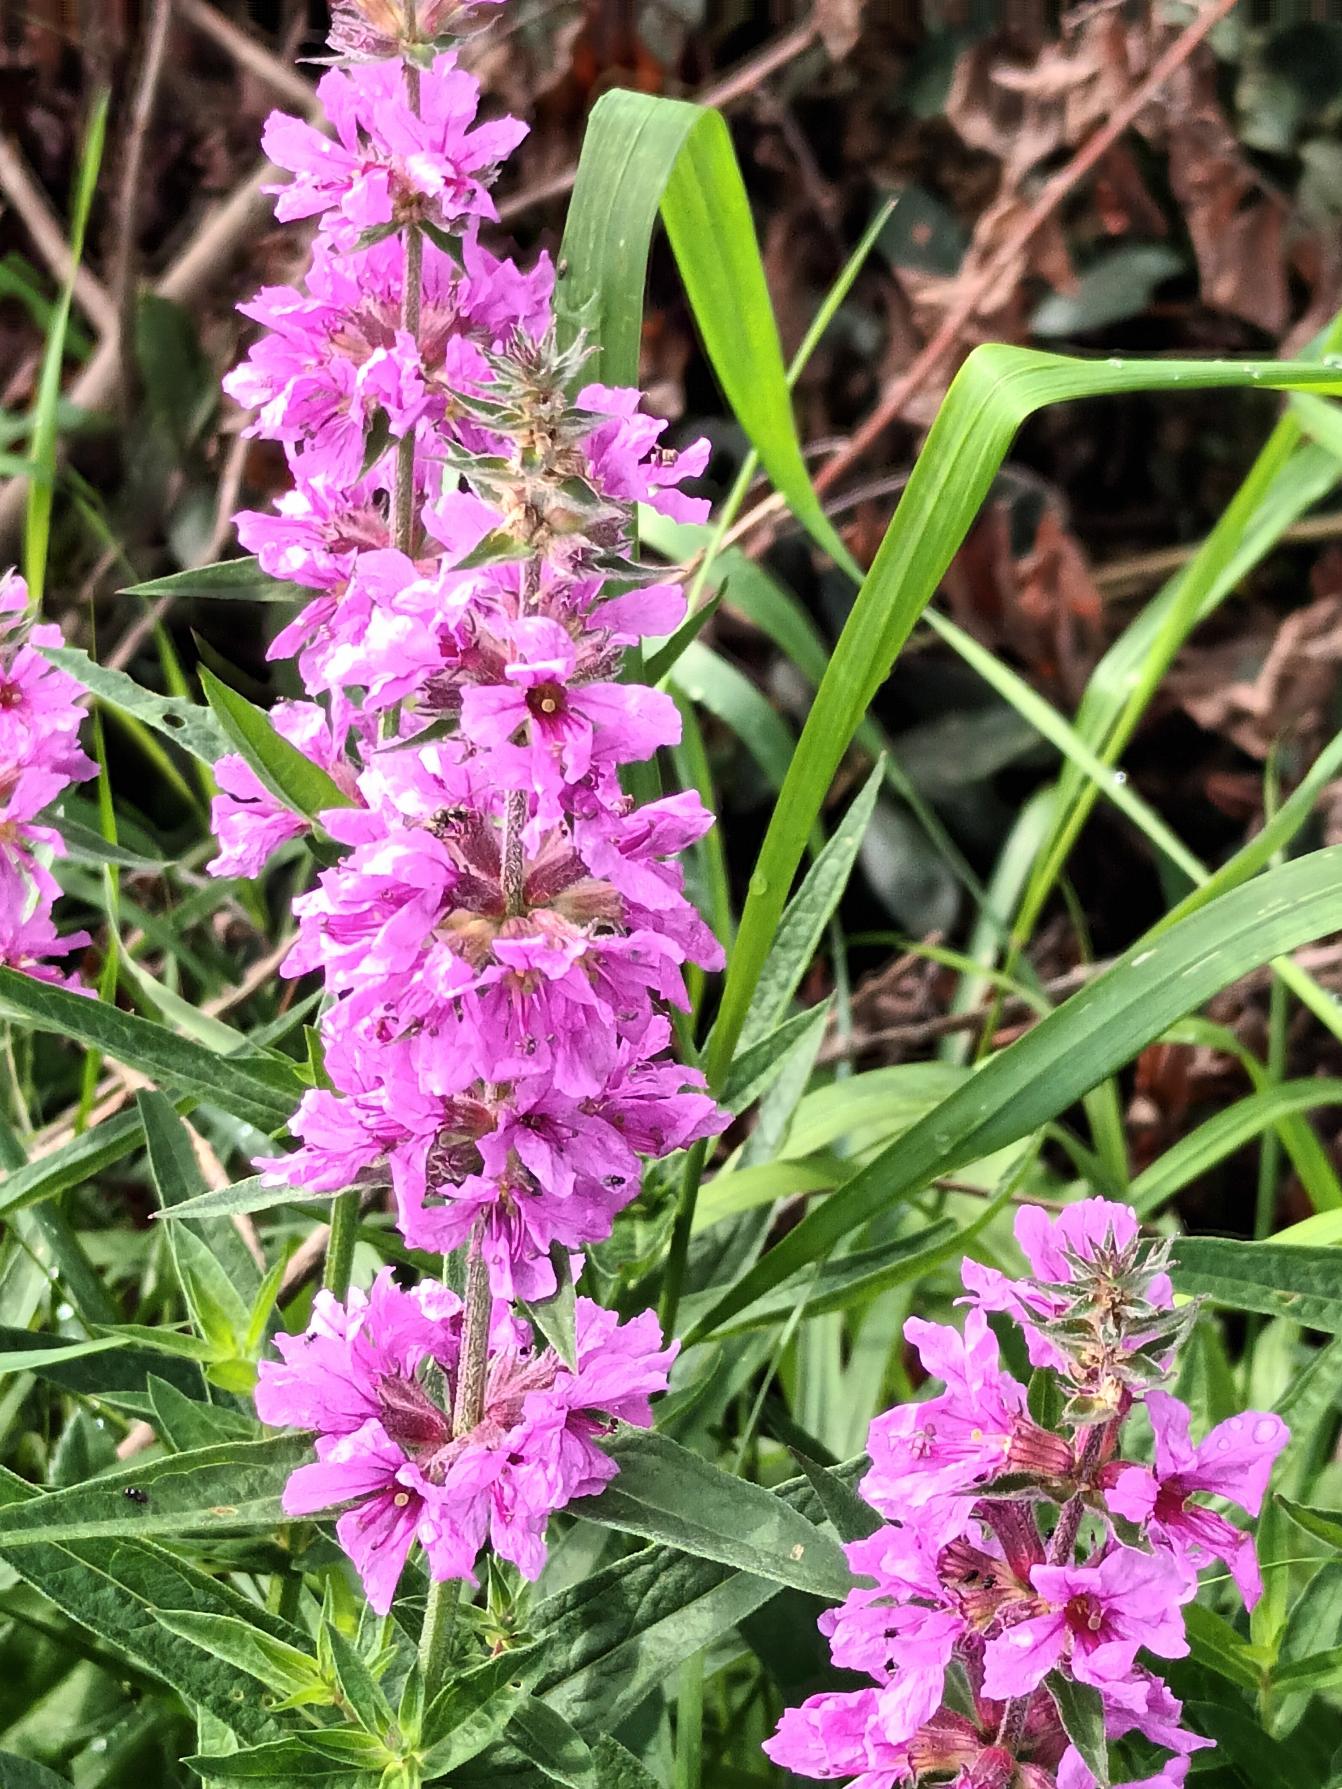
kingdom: Plantae
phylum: Tracheophyta
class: Magnoliopsida
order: Myrtales
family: Lythraceae
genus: Lythrum
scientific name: Lythrum salicaria
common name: Kattehale
